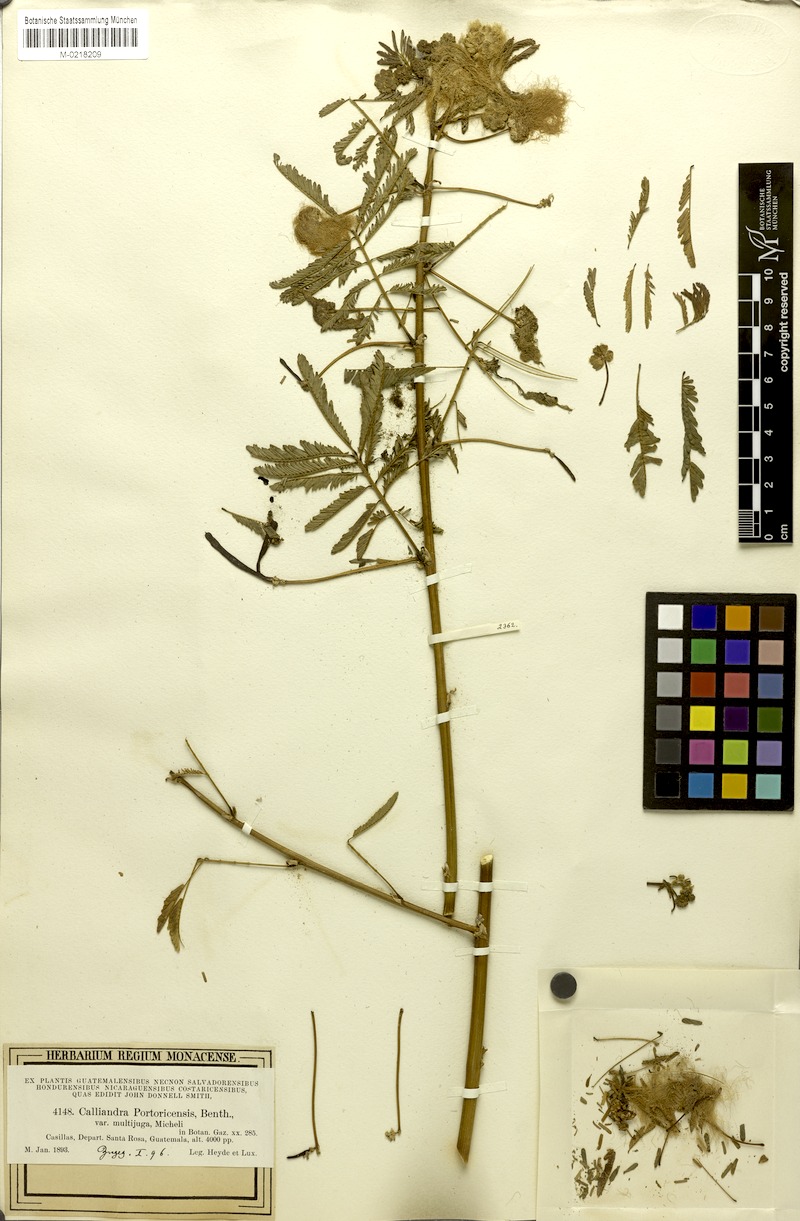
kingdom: Plantae
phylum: Tracheophyta
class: Magnoliopsida
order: Fabales
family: Fabaceae
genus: Zapoteca
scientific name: Zapoteca tetragona
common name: White calliandra
